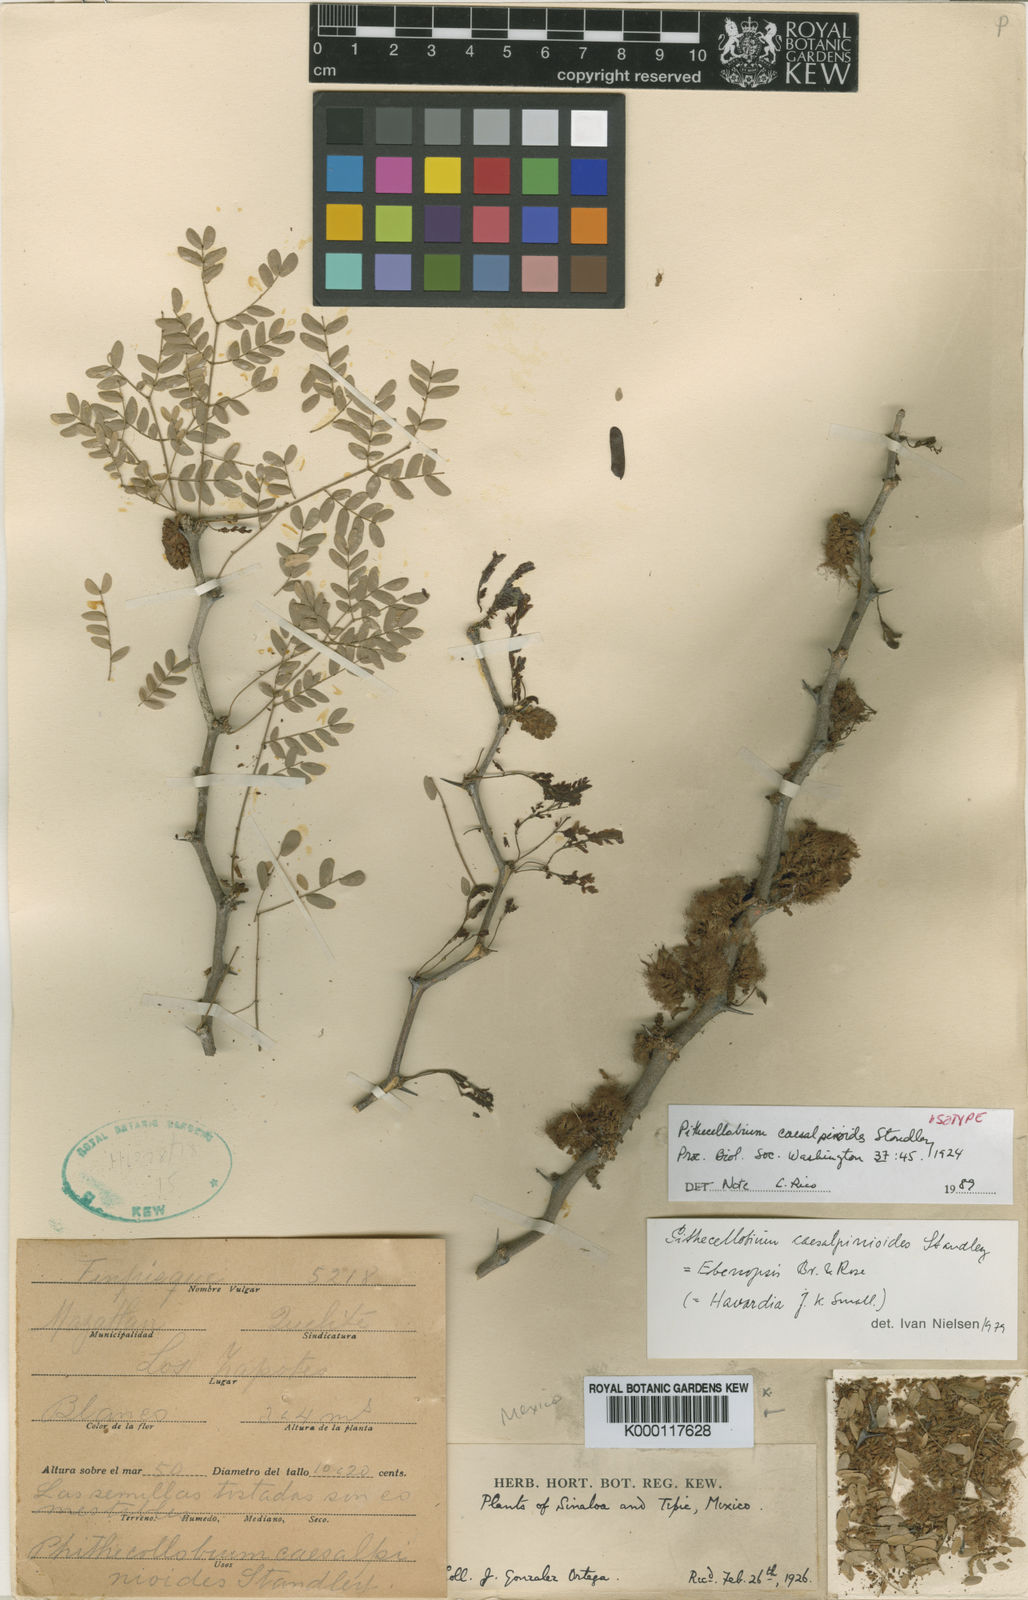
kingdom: Plantae
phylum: Tracheophyta
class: Magnoliopsida
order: Fabales
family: Fabaceae
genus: Chloroleucon
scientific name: Chloroleucon
